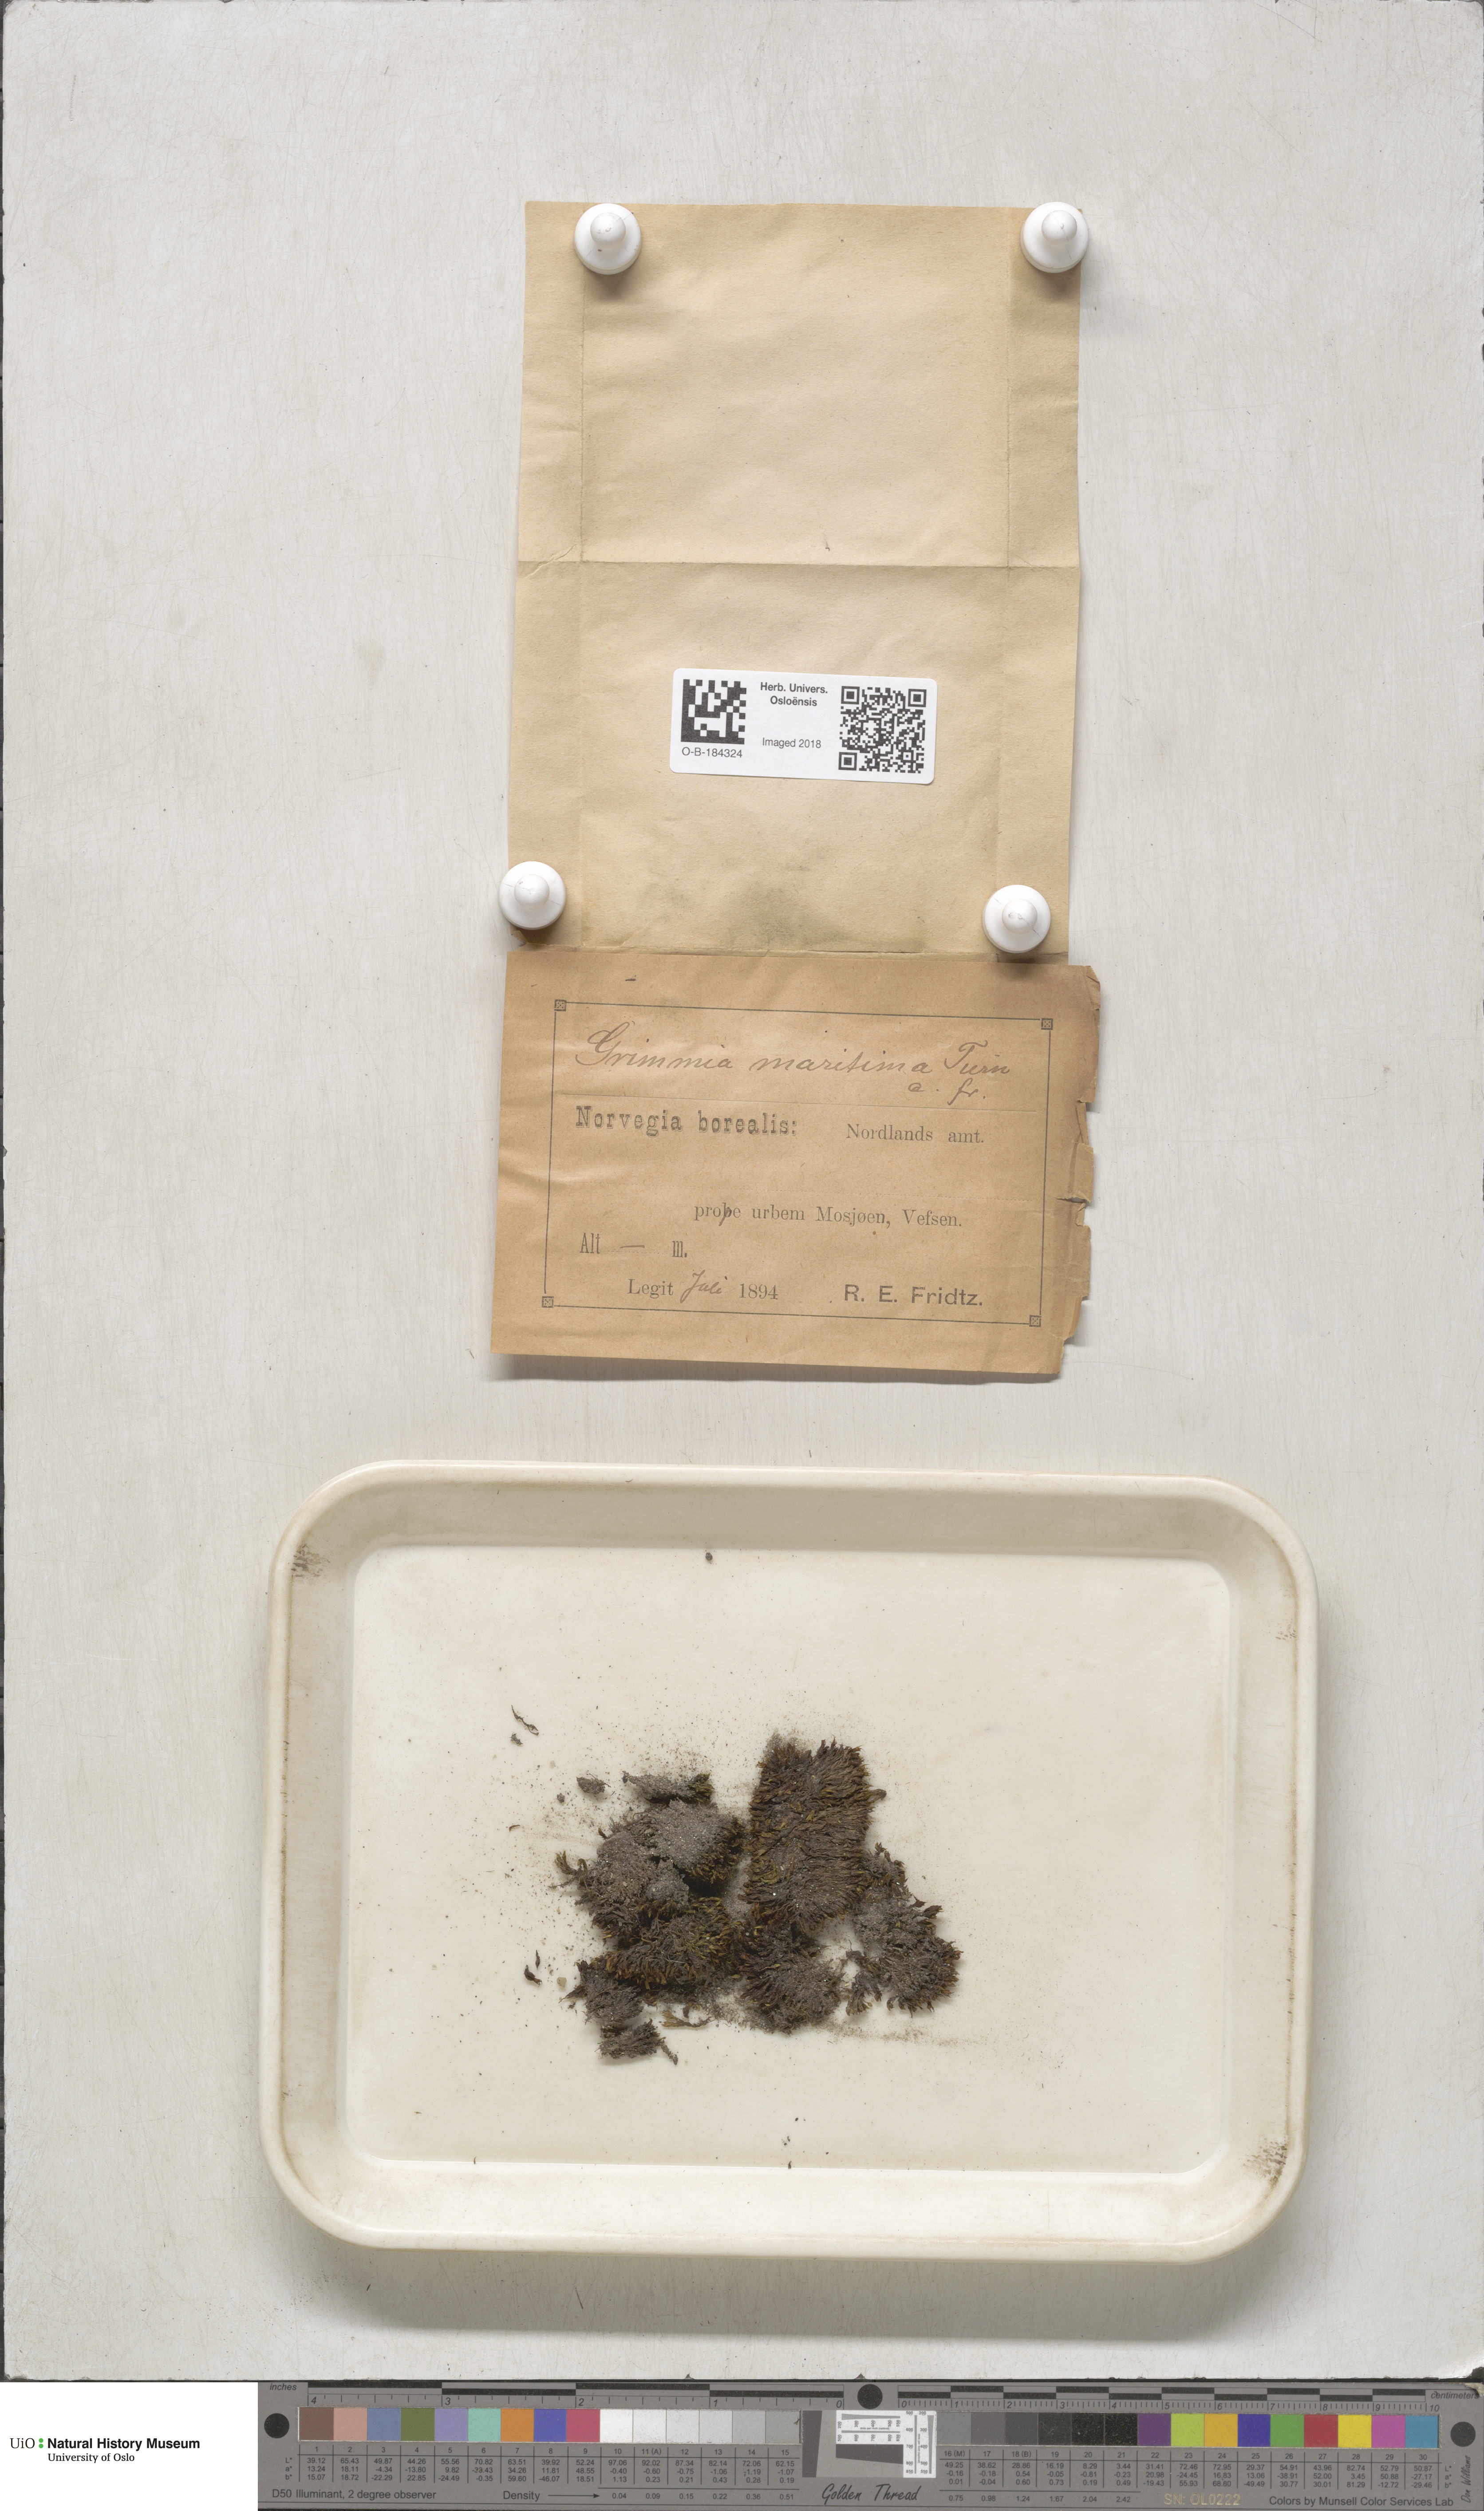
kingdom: Plantae
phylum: Bryophyta
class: Bryopsida
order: Grimmiales
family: Grimmiaceae
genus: Schistidium
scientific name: Schistidium maritimum
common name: Seaside bloom moss
